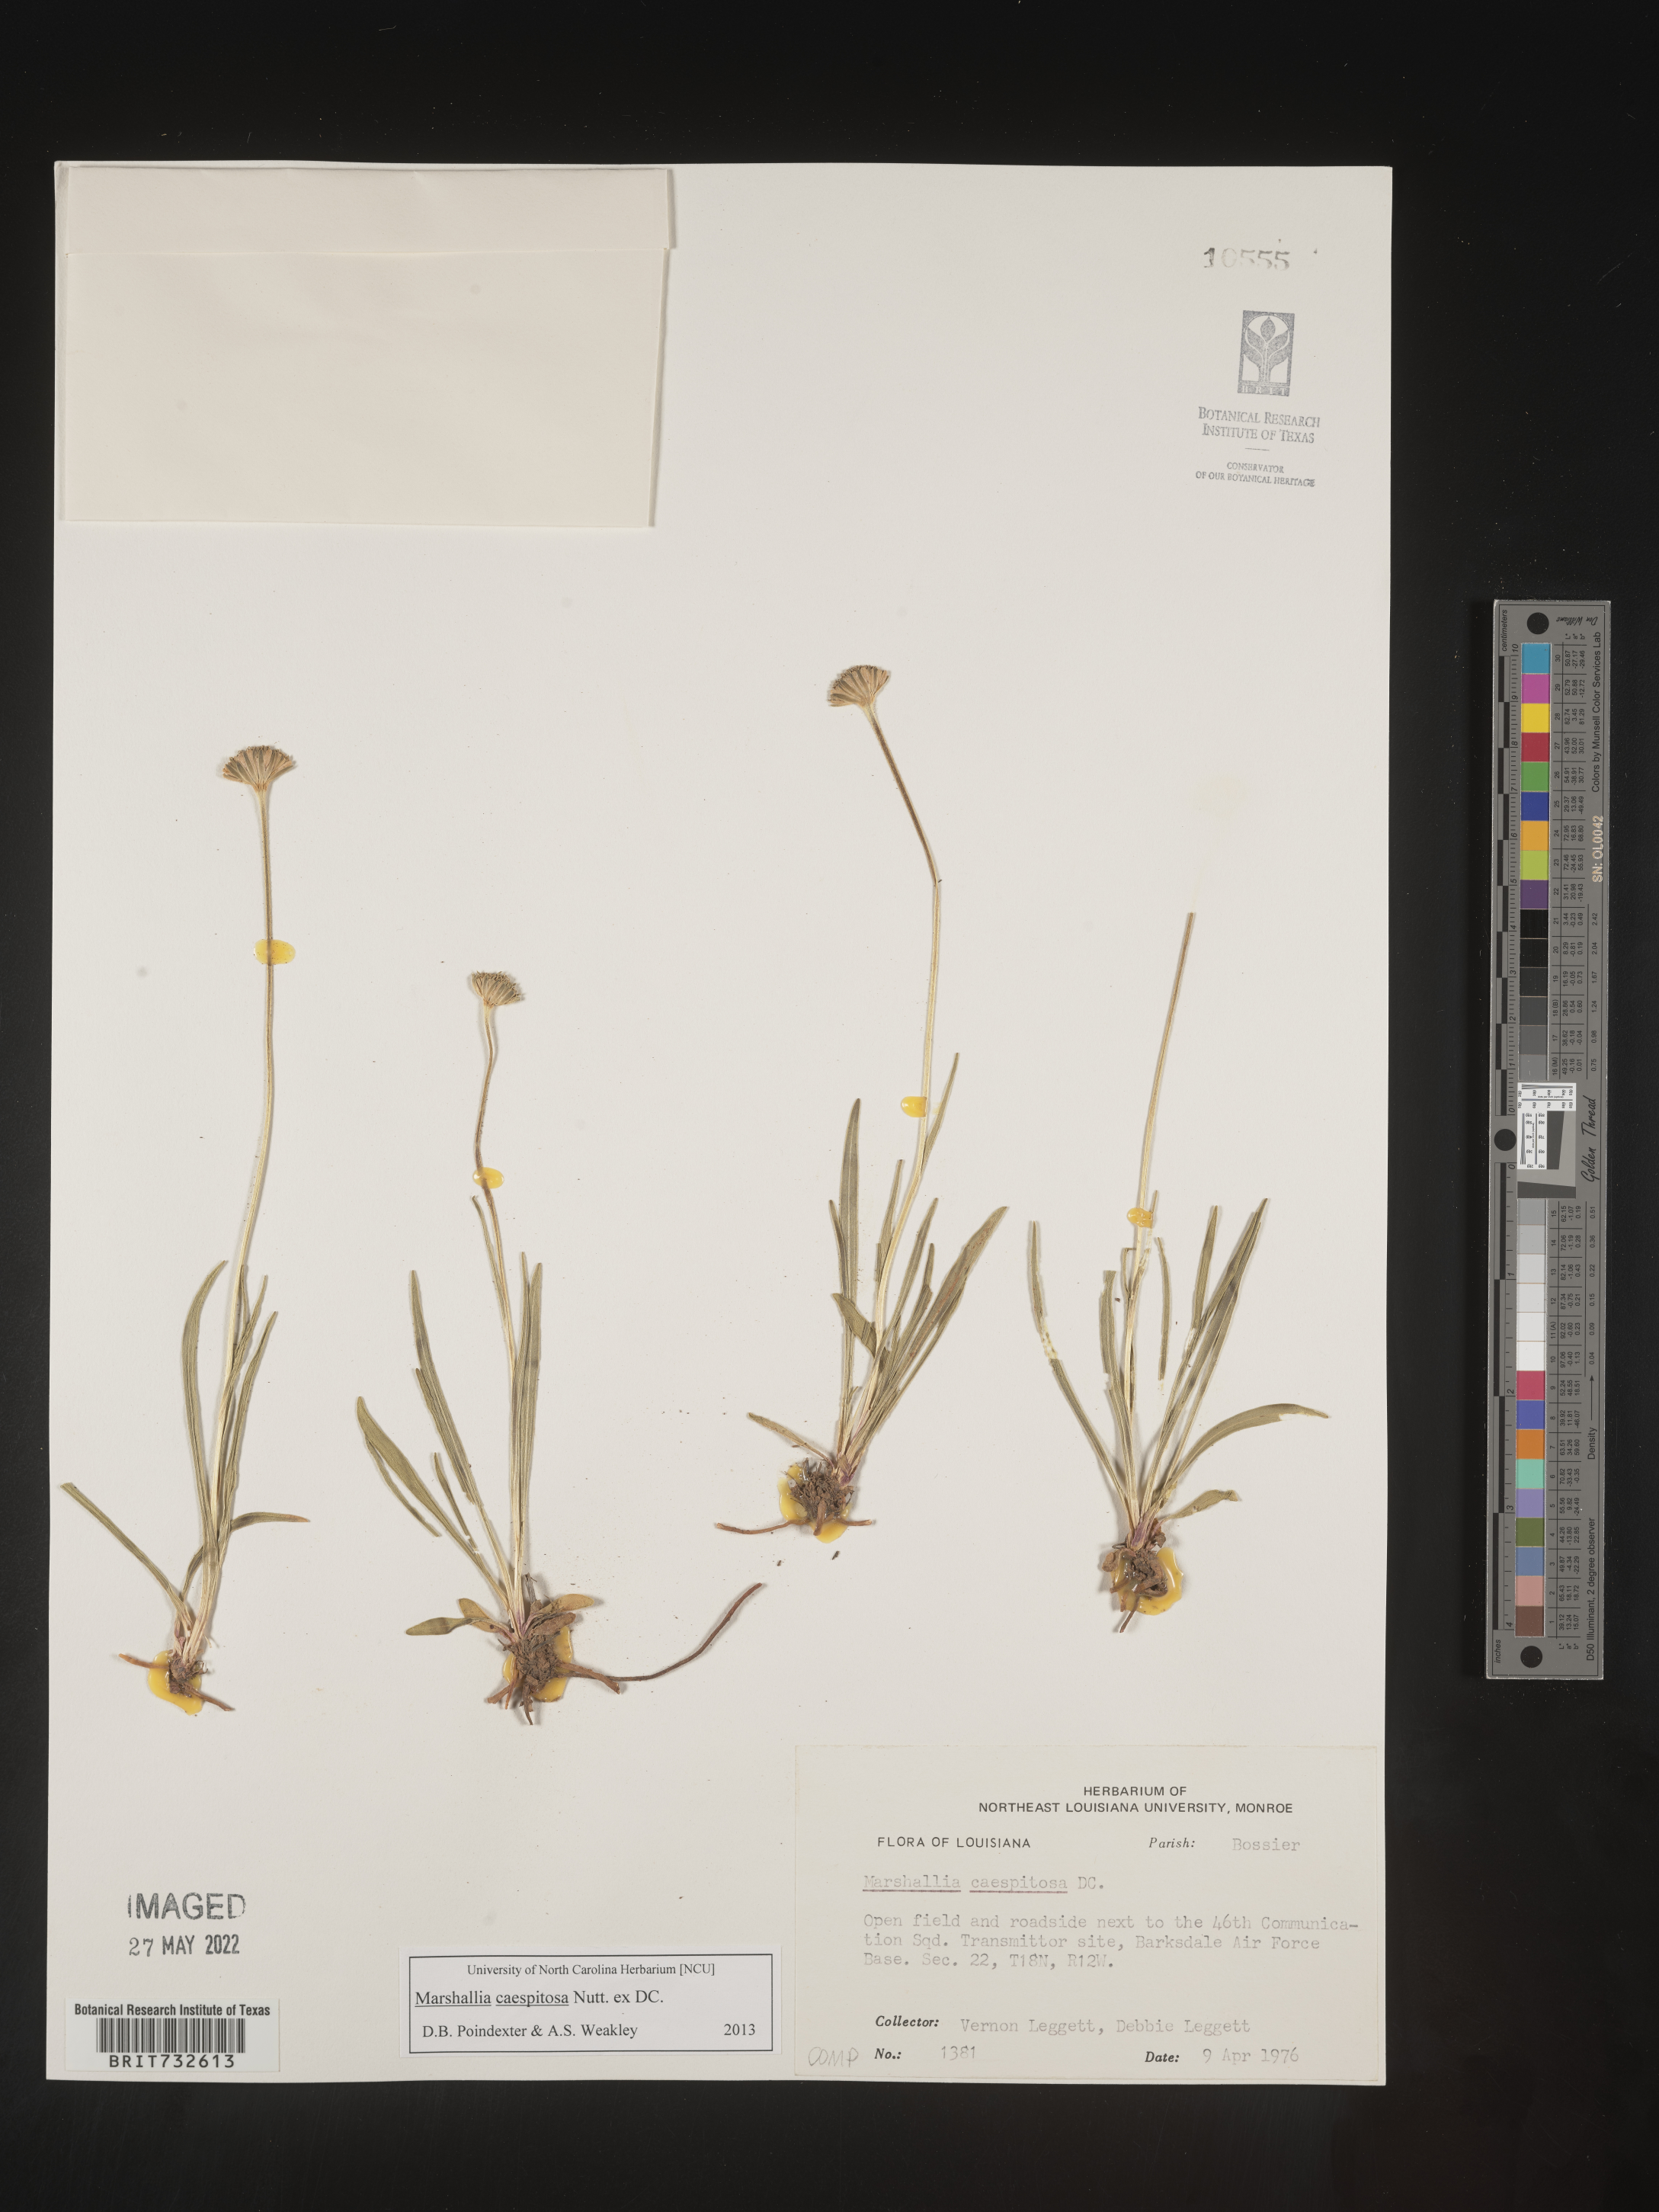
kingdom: Plantae
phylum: Tracheophyta
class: Magnoliopsida
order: Asterales
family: Asteraceae
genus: Marshallia
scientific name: Marshallia caespitosa
